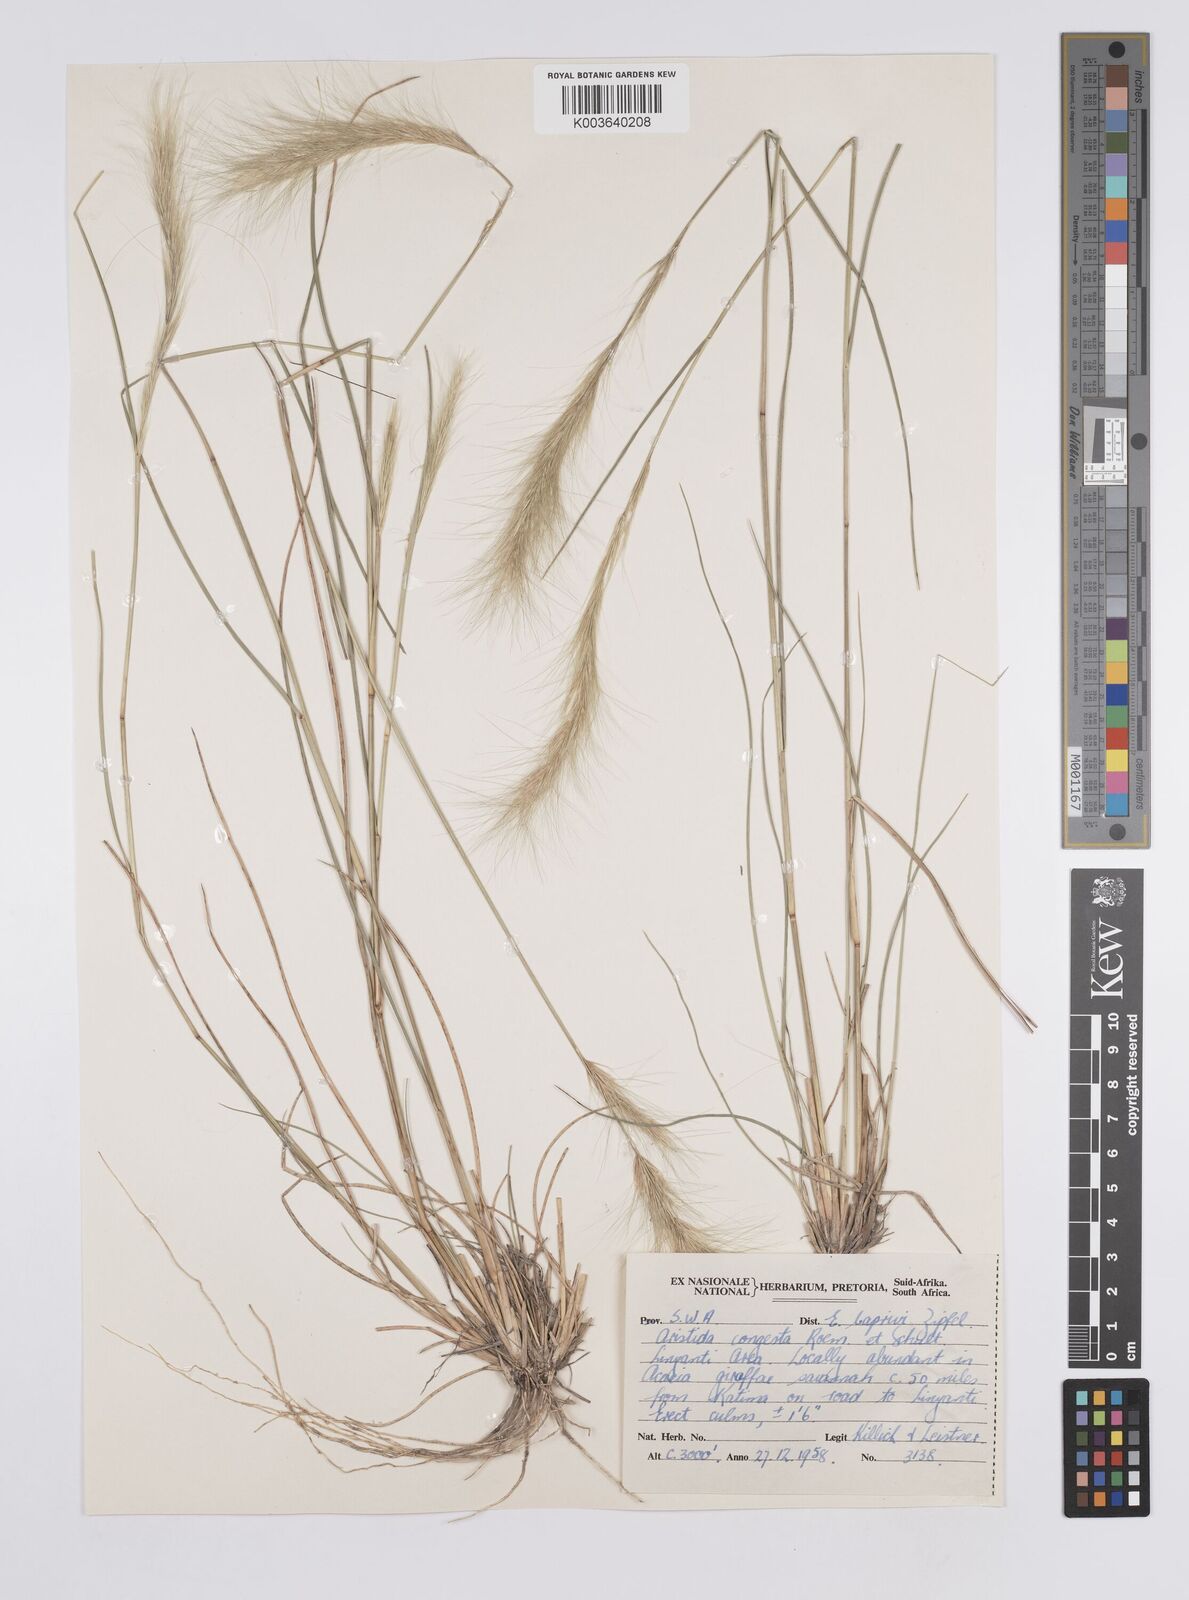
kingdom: Plantae
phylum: Tracheophyta
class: Liliopsida
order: Poales
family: Poaceae
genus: Aristida
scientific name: Aristida congesta
